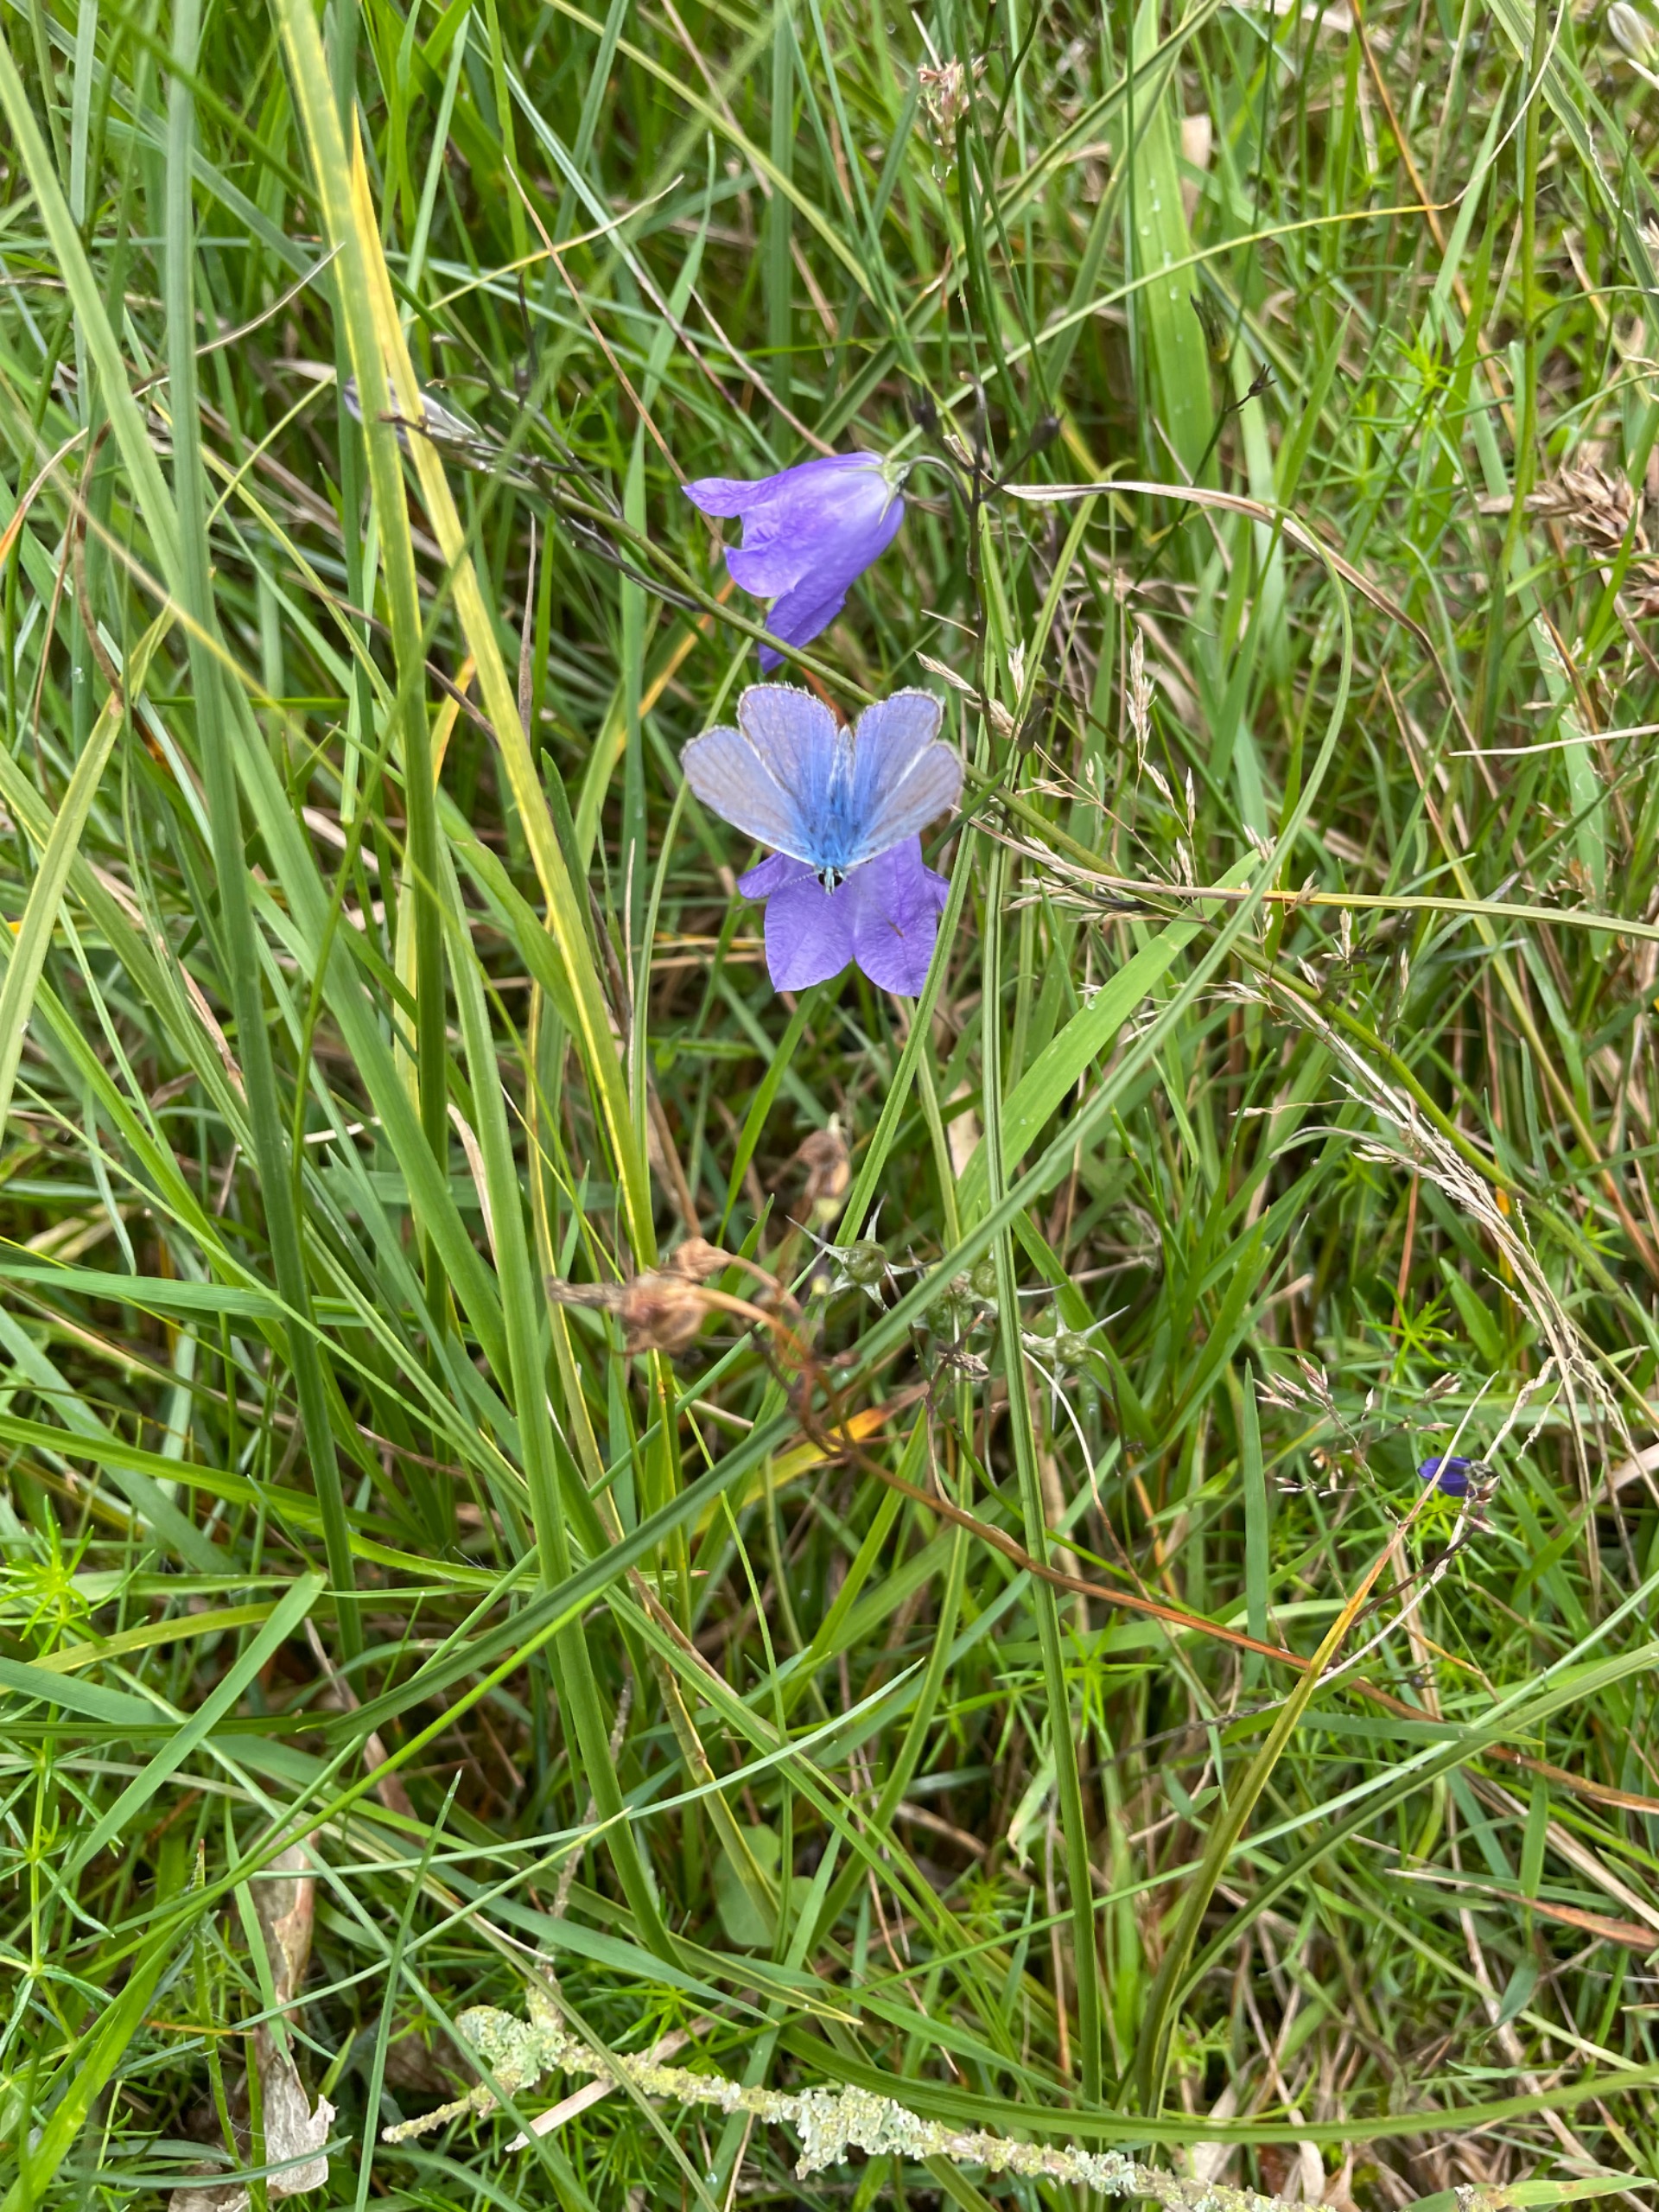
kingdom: Animalia
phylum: Arthropoda
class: Insecta
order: Lepidoptera
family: Lycaenidae
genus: Polyommatus
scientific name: Polyommatus icarus
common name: Almindelig blåfugl
